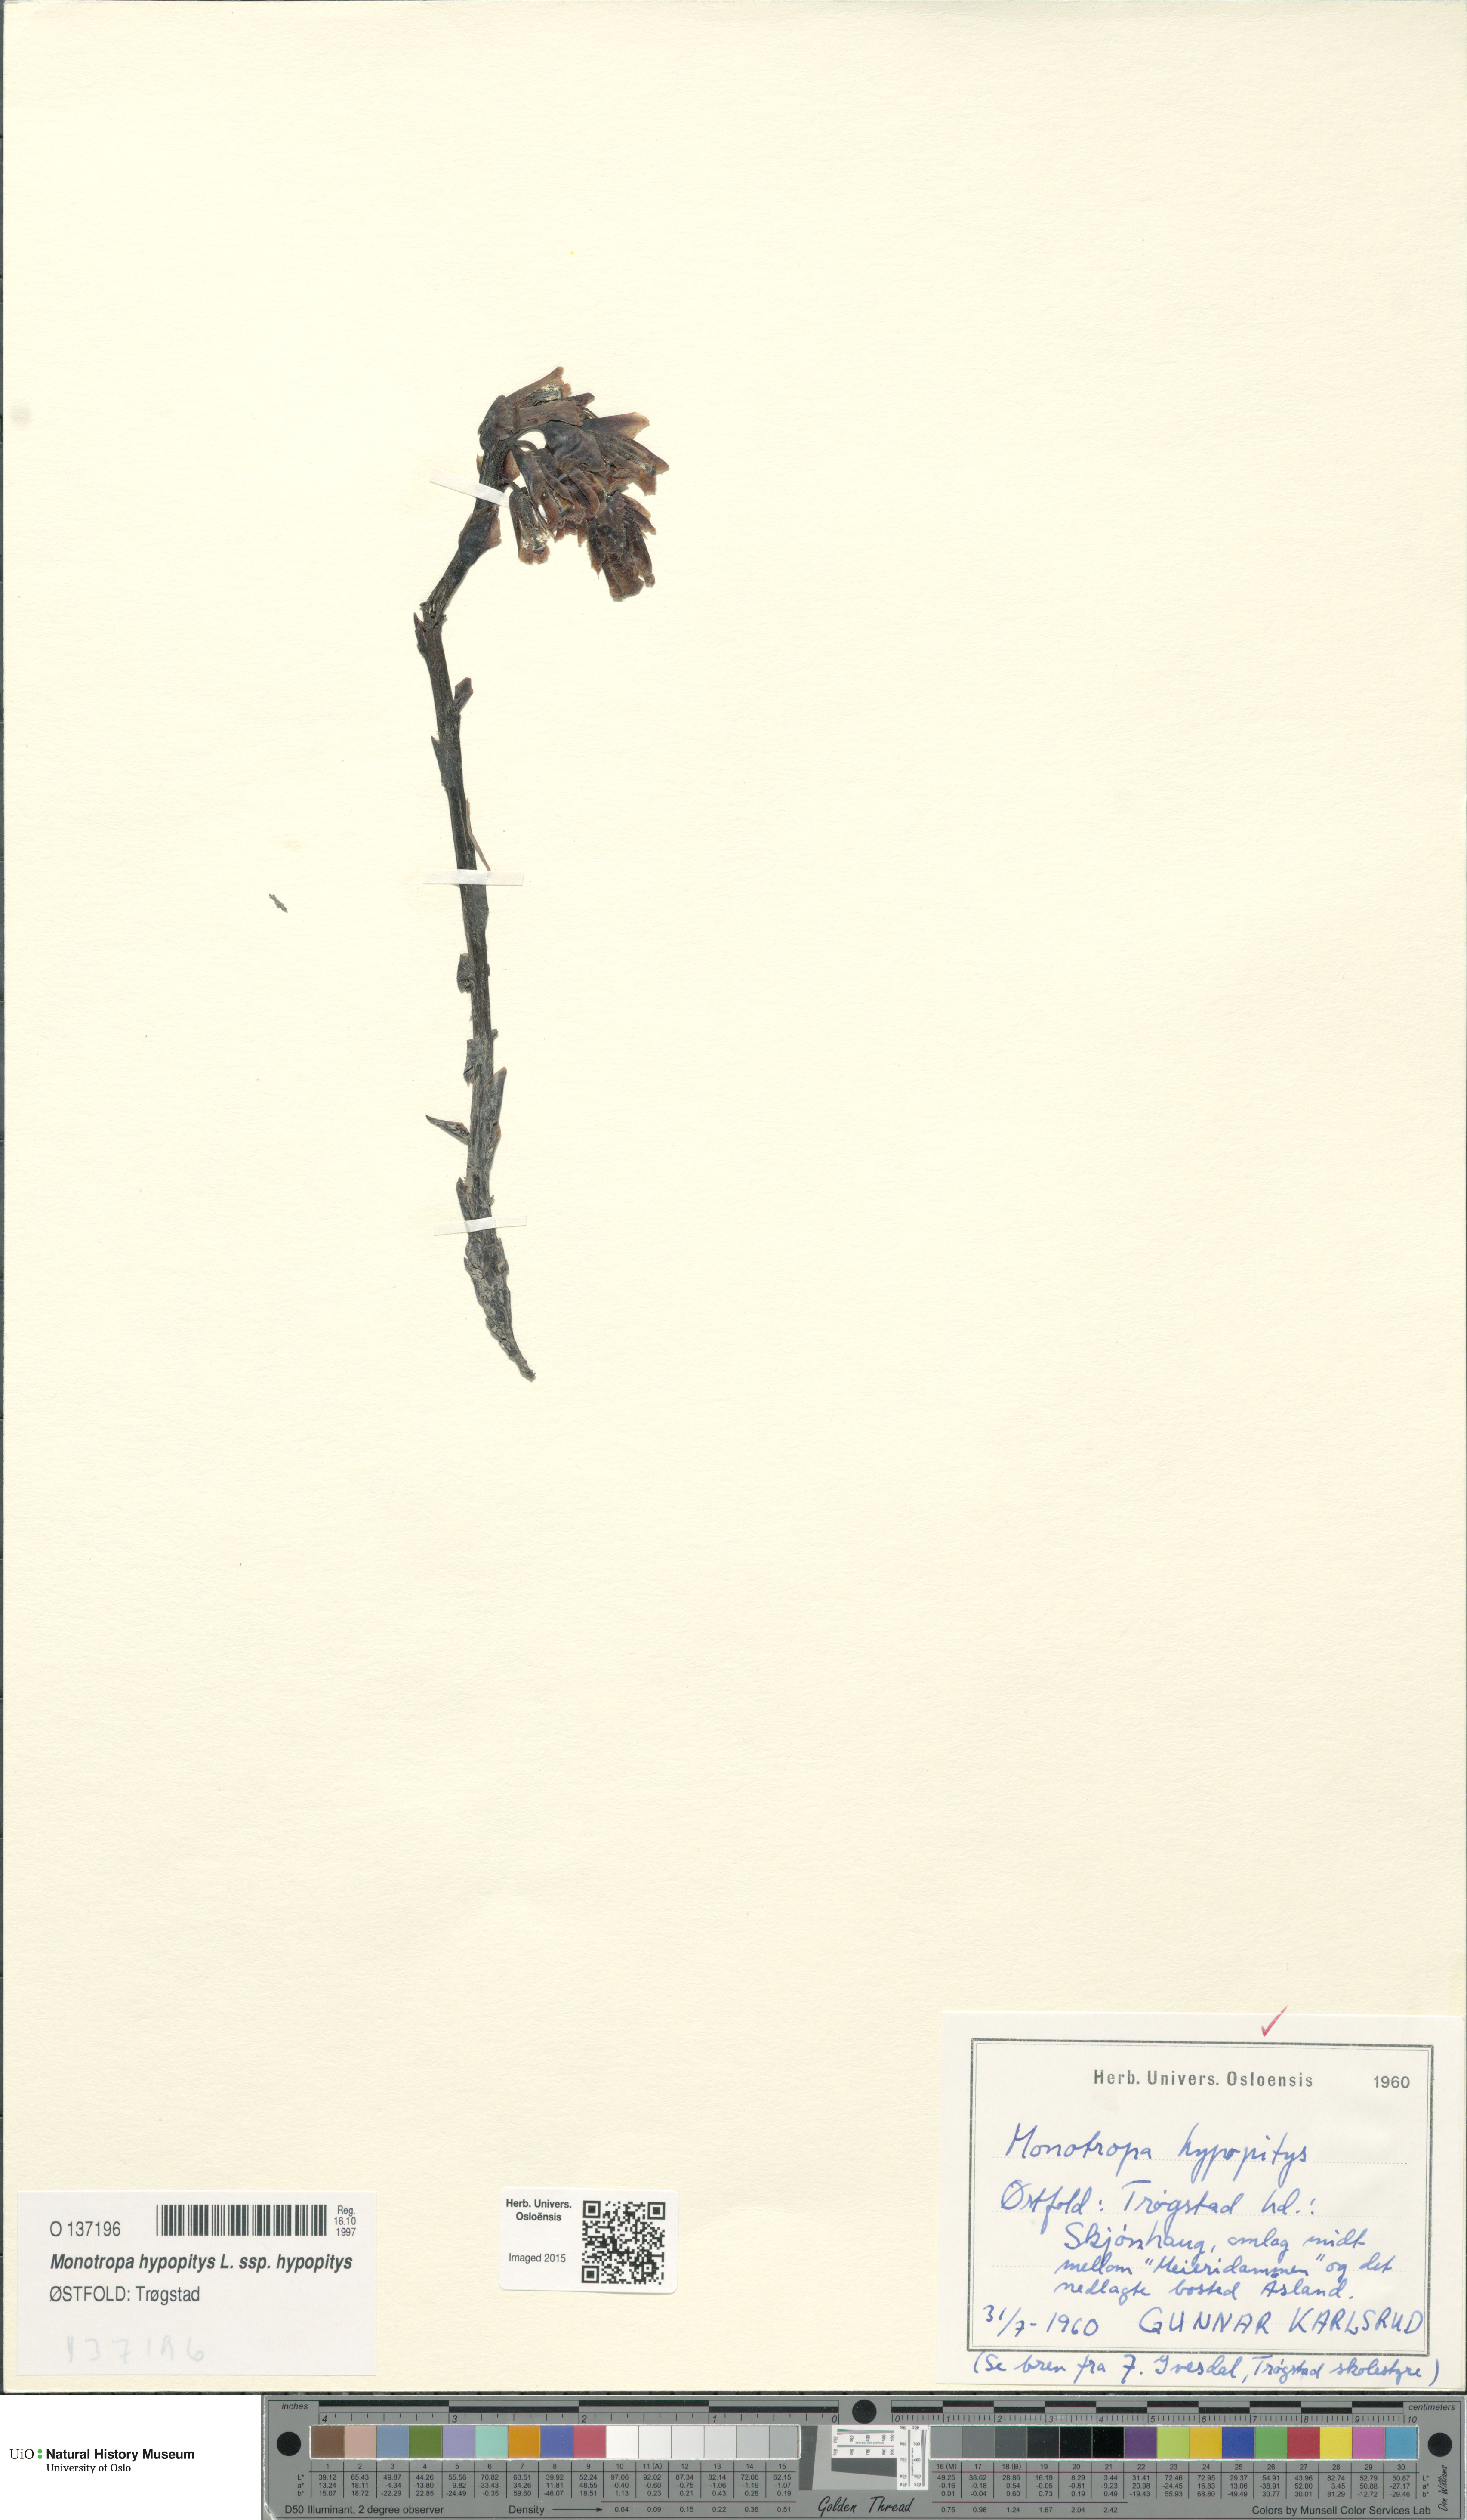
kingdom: Plantae
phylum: Tracheophyta
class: Magnoliopsida
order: Ericales
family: Ericaceae
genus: Hypopitys
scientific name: Hypopitys monotropa
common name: Yellow bird's-nest
